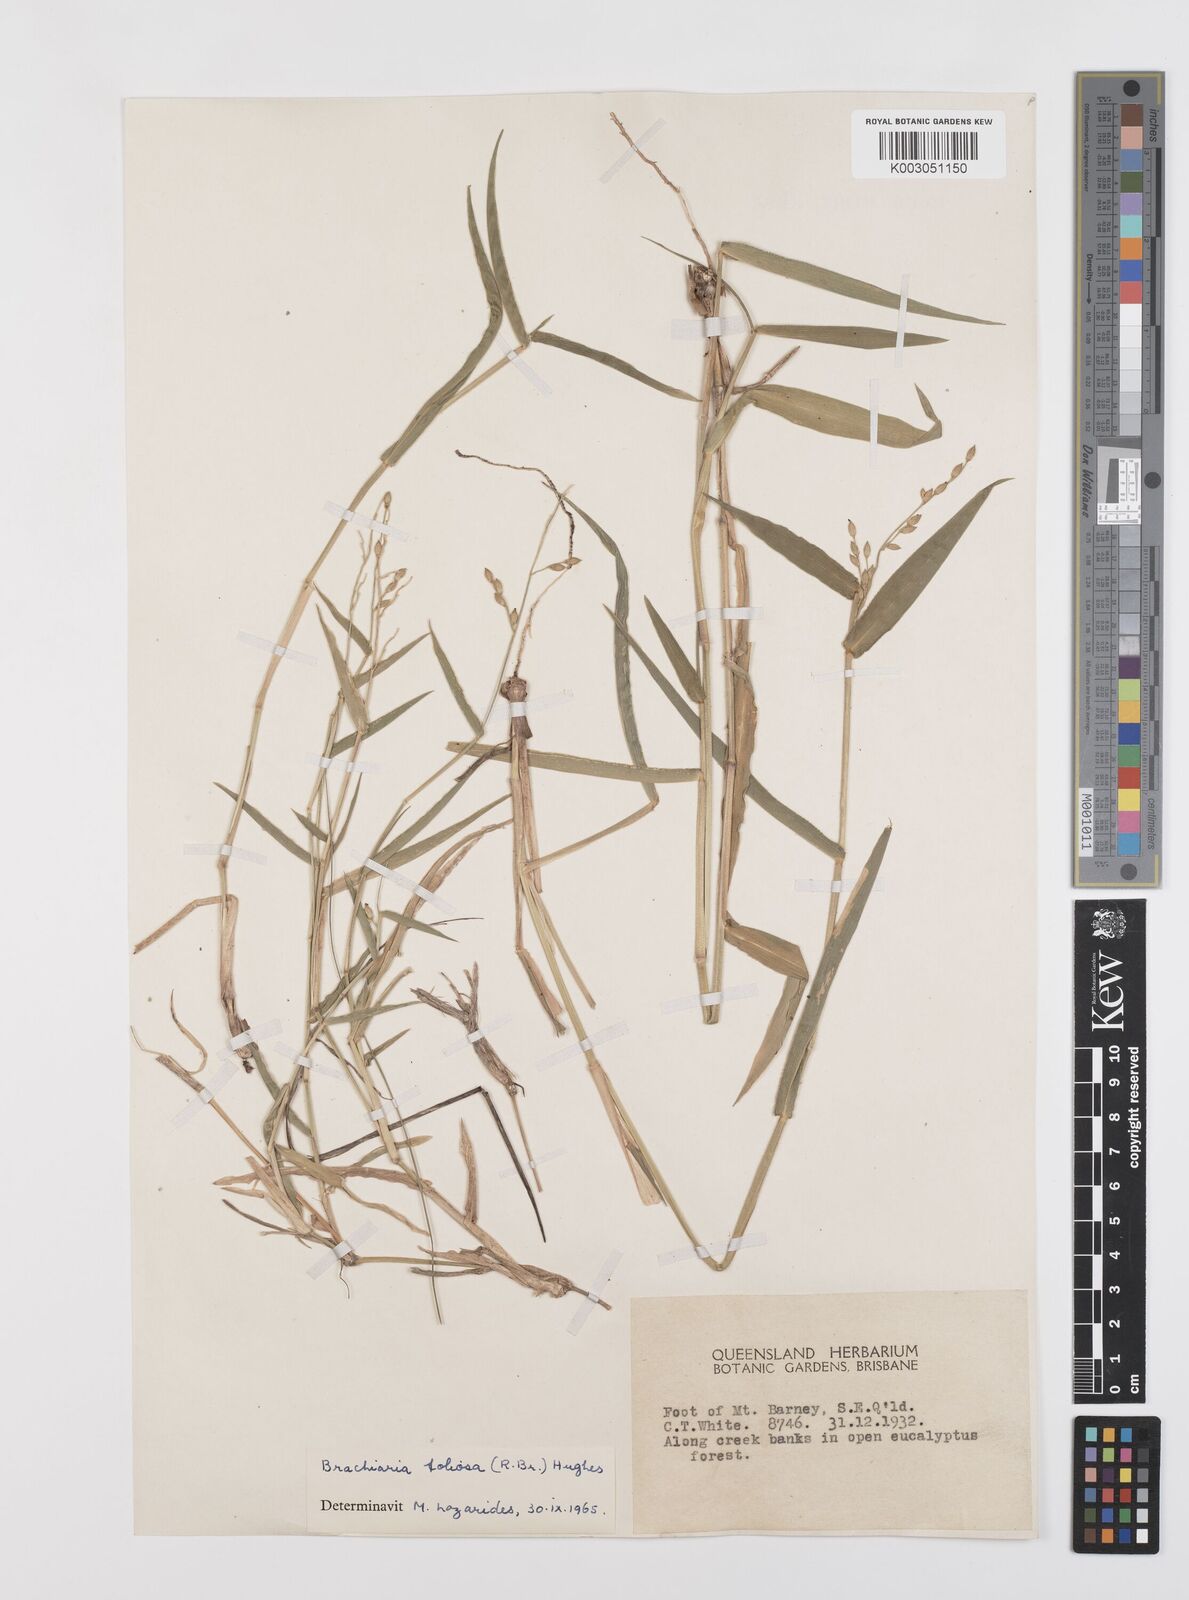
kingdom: Plantae
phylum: Tracheophyta
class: Liliopsida
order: Poales
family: Poaceae
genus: Urochloa
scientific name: Urochloa foliosa
